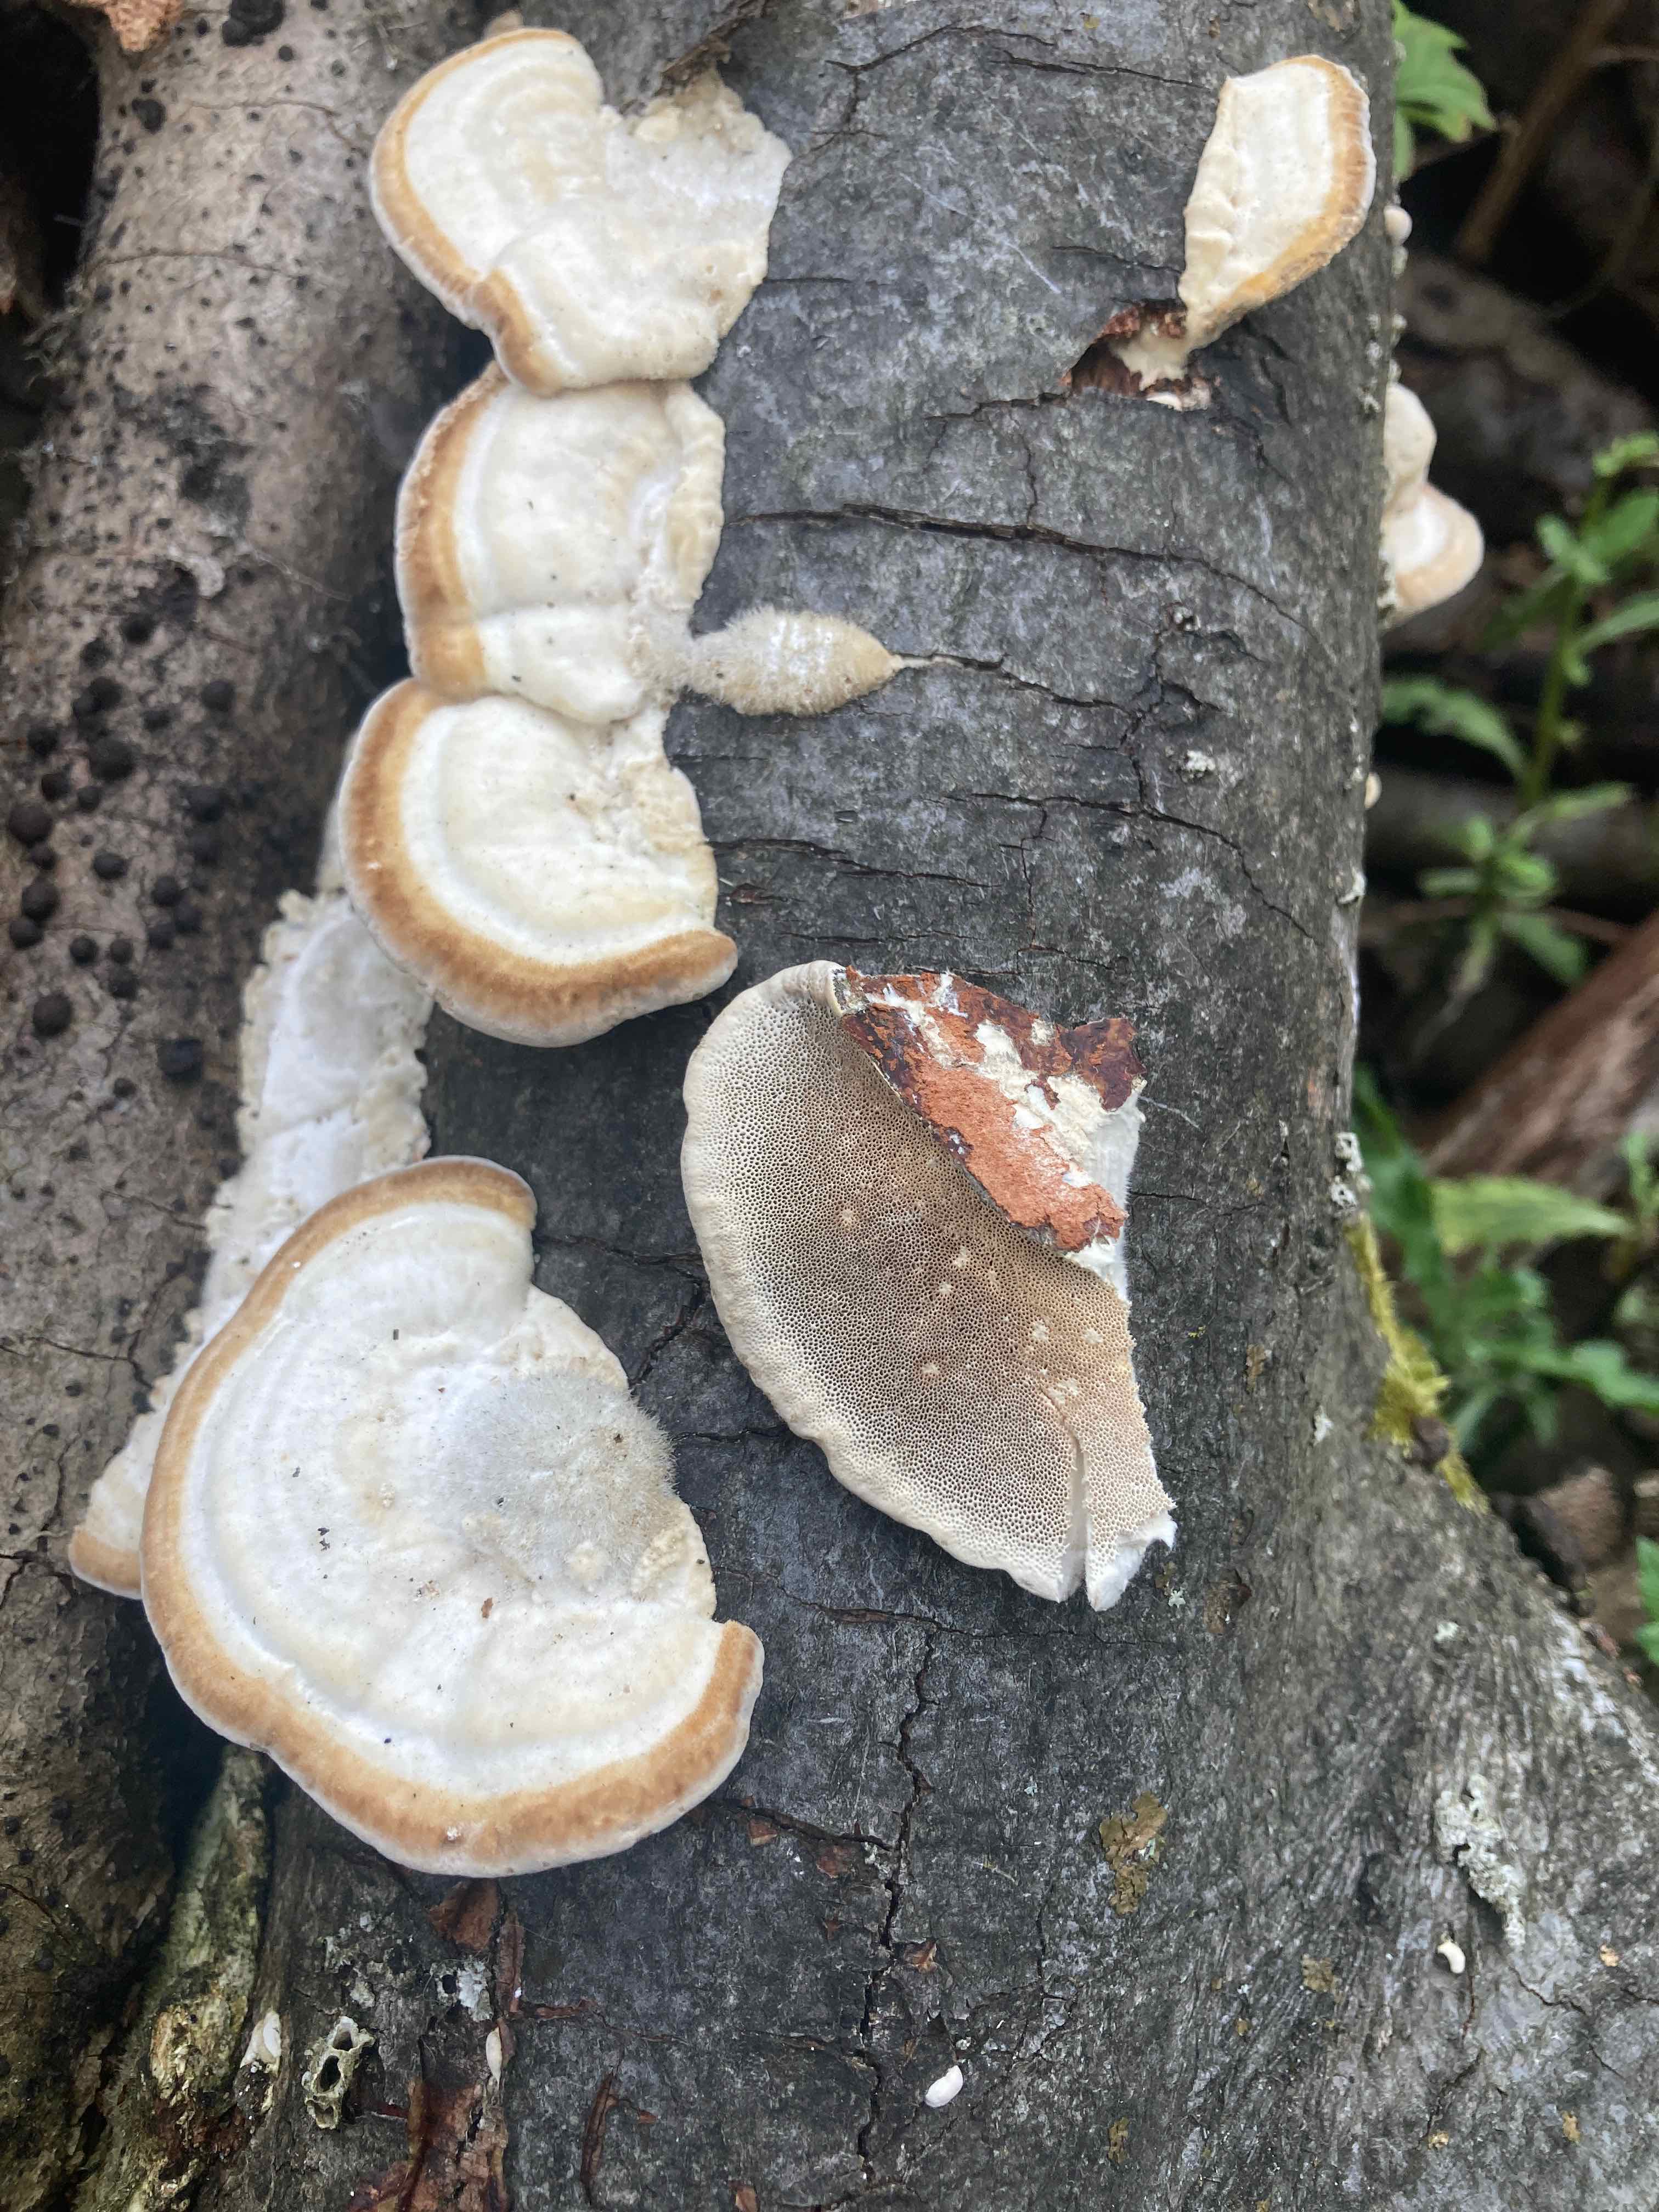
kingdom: Fungi
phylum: Basidiomycota
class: Agaricomycetes
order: Polyporales
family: Polyporaceae
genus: Trametes
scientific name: Trametes hirsuta
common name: håret læderporesvamp
